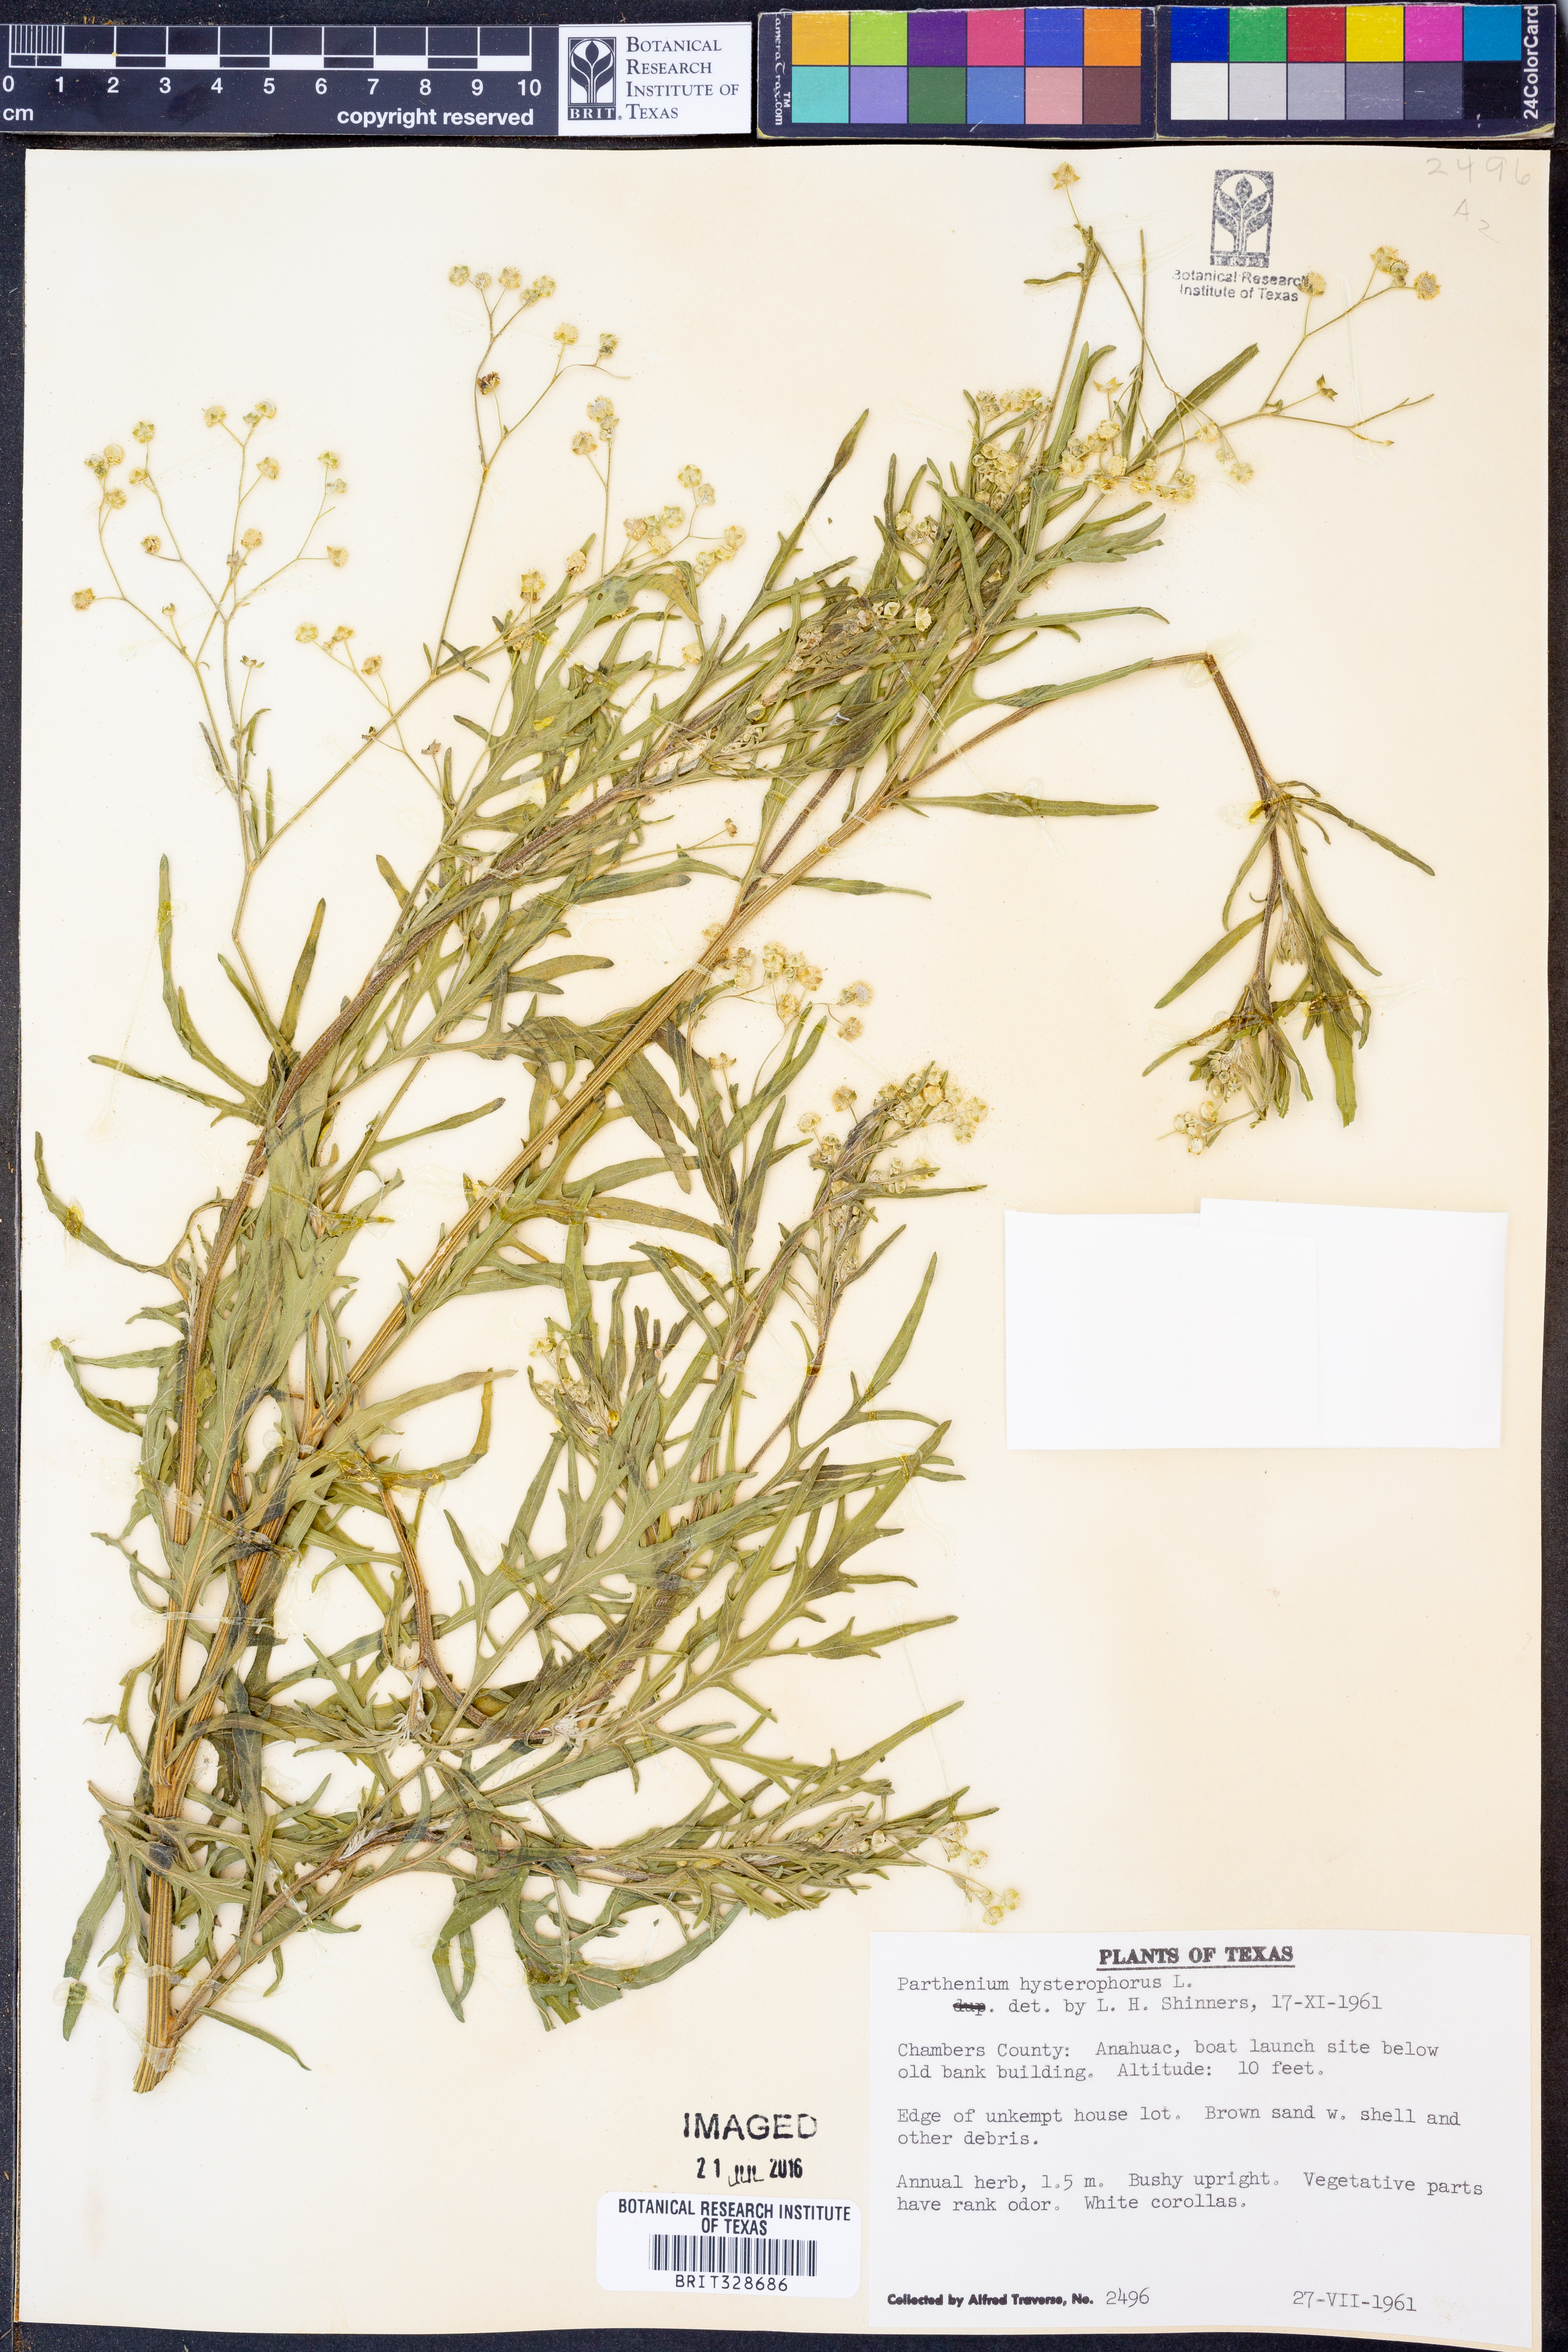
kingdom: Plantae
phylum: Tracheophyta
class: Magnoliopsida
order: Asterales
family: Asteraceae
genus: Parthenium
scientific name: Parthenium hysterophorus
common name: Santa maria feverfew
